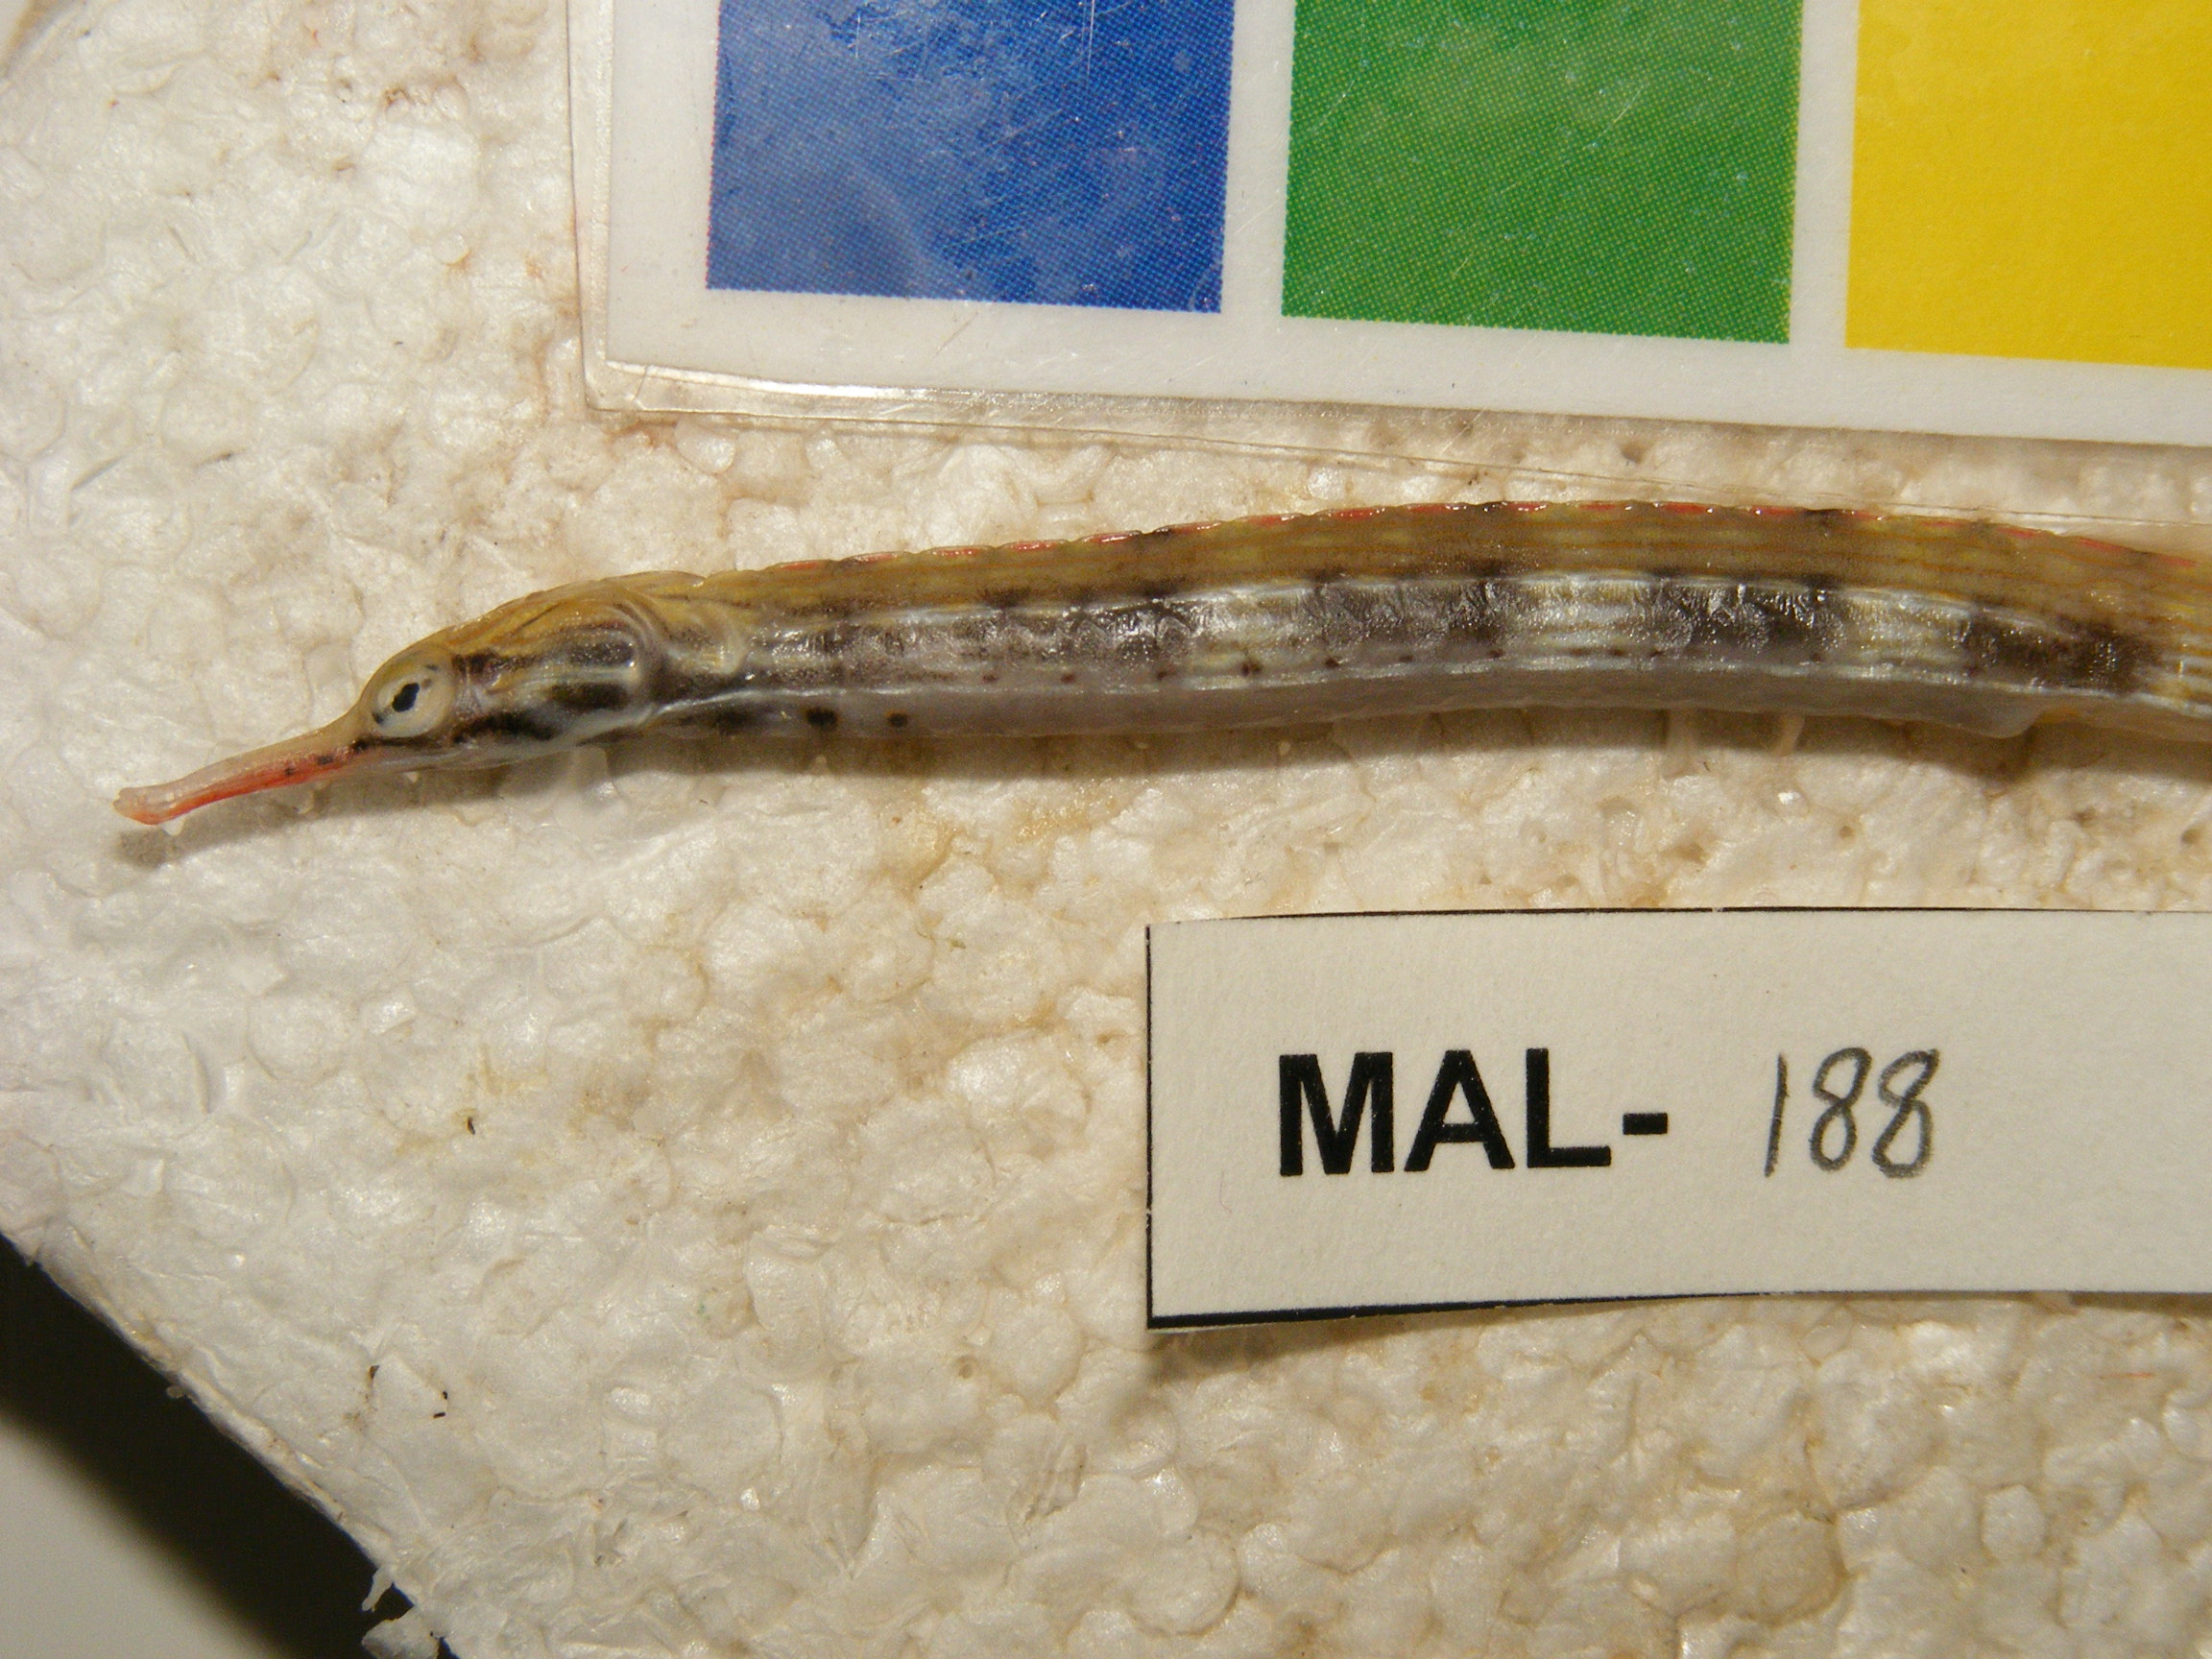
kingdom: Animalia
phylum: Chordata
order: Syngnathiformes
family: Syngnathidae
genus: Corythoichthys
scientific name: Corythoichthys haematopterus
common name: Bloodspot pipefish
